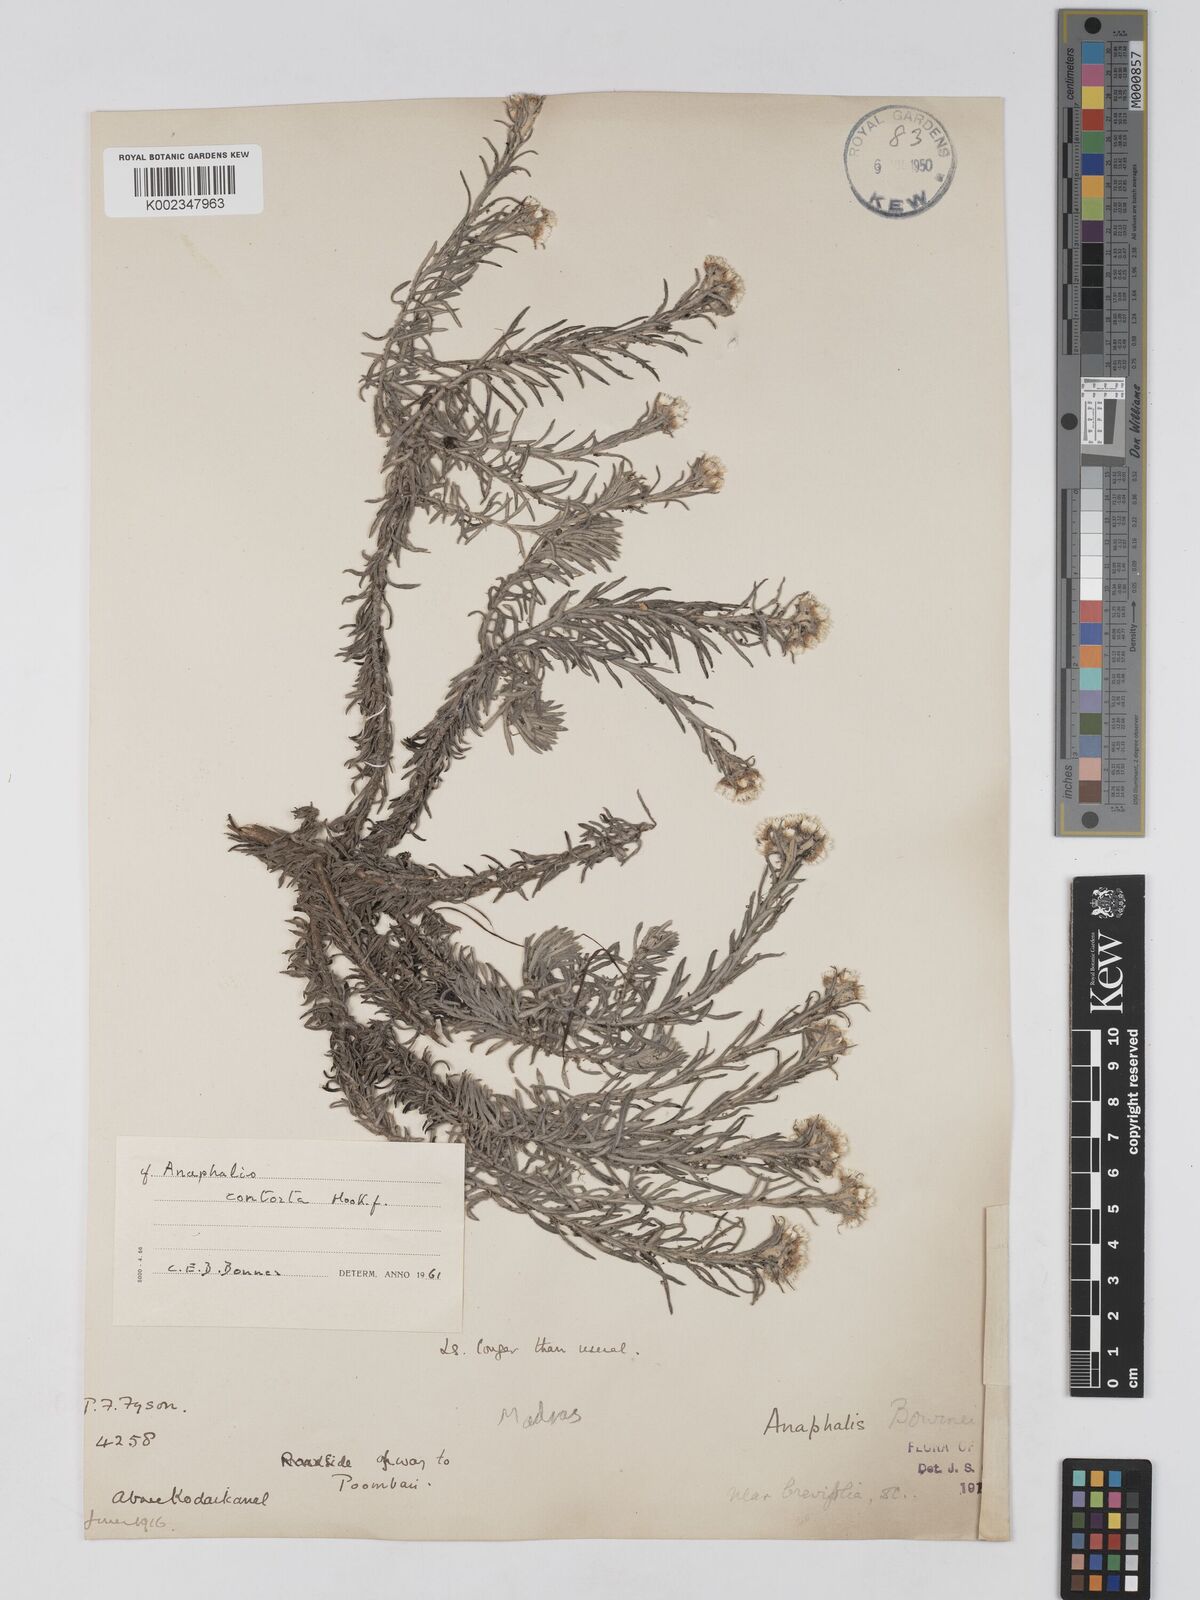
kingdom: Plantae
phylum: Tracheophyta
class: Magnoliopsida
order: Asterales
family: Asteraceae
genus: Anaphalis
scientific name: Anaphalis
